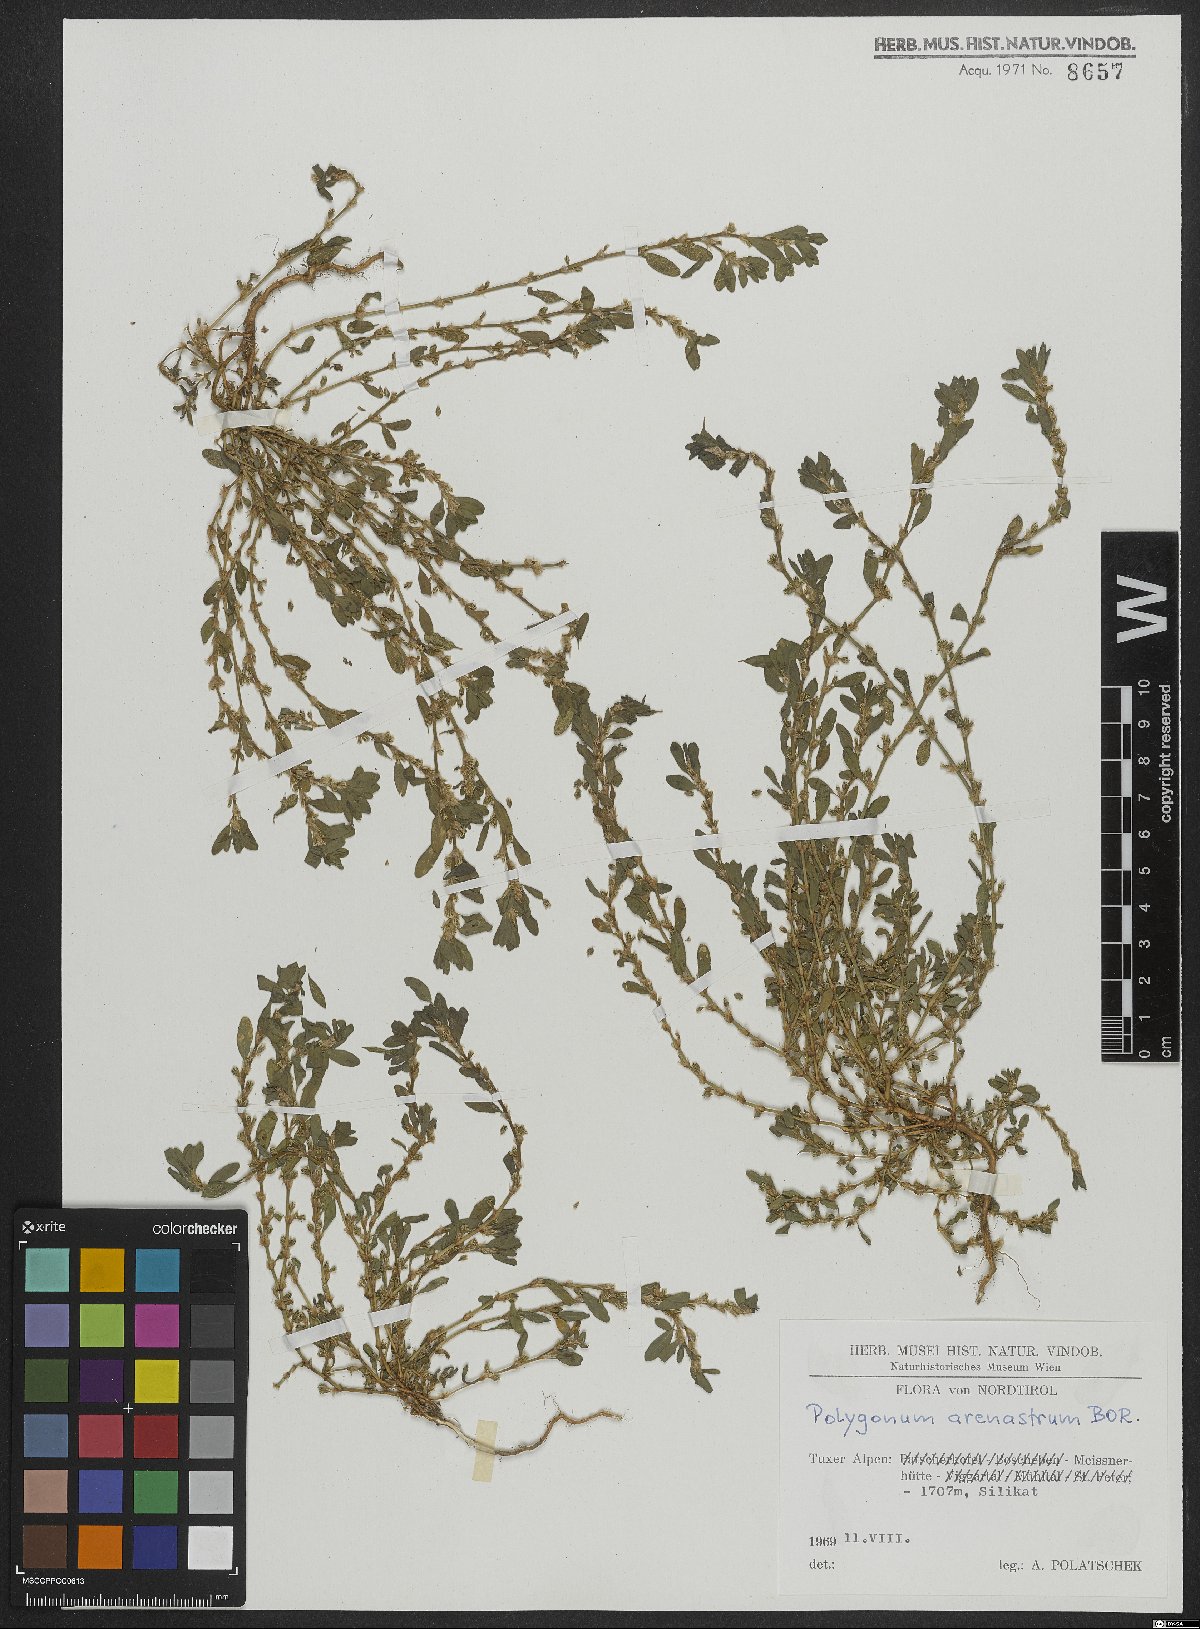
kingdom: Plantae
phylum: Tracheophyta
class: Magnoliopsida
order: Caryophyllales
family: Polygonaceae
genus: Polygonum
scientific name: Polygonum arenastrum
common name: Equal-leaved knotgrass
